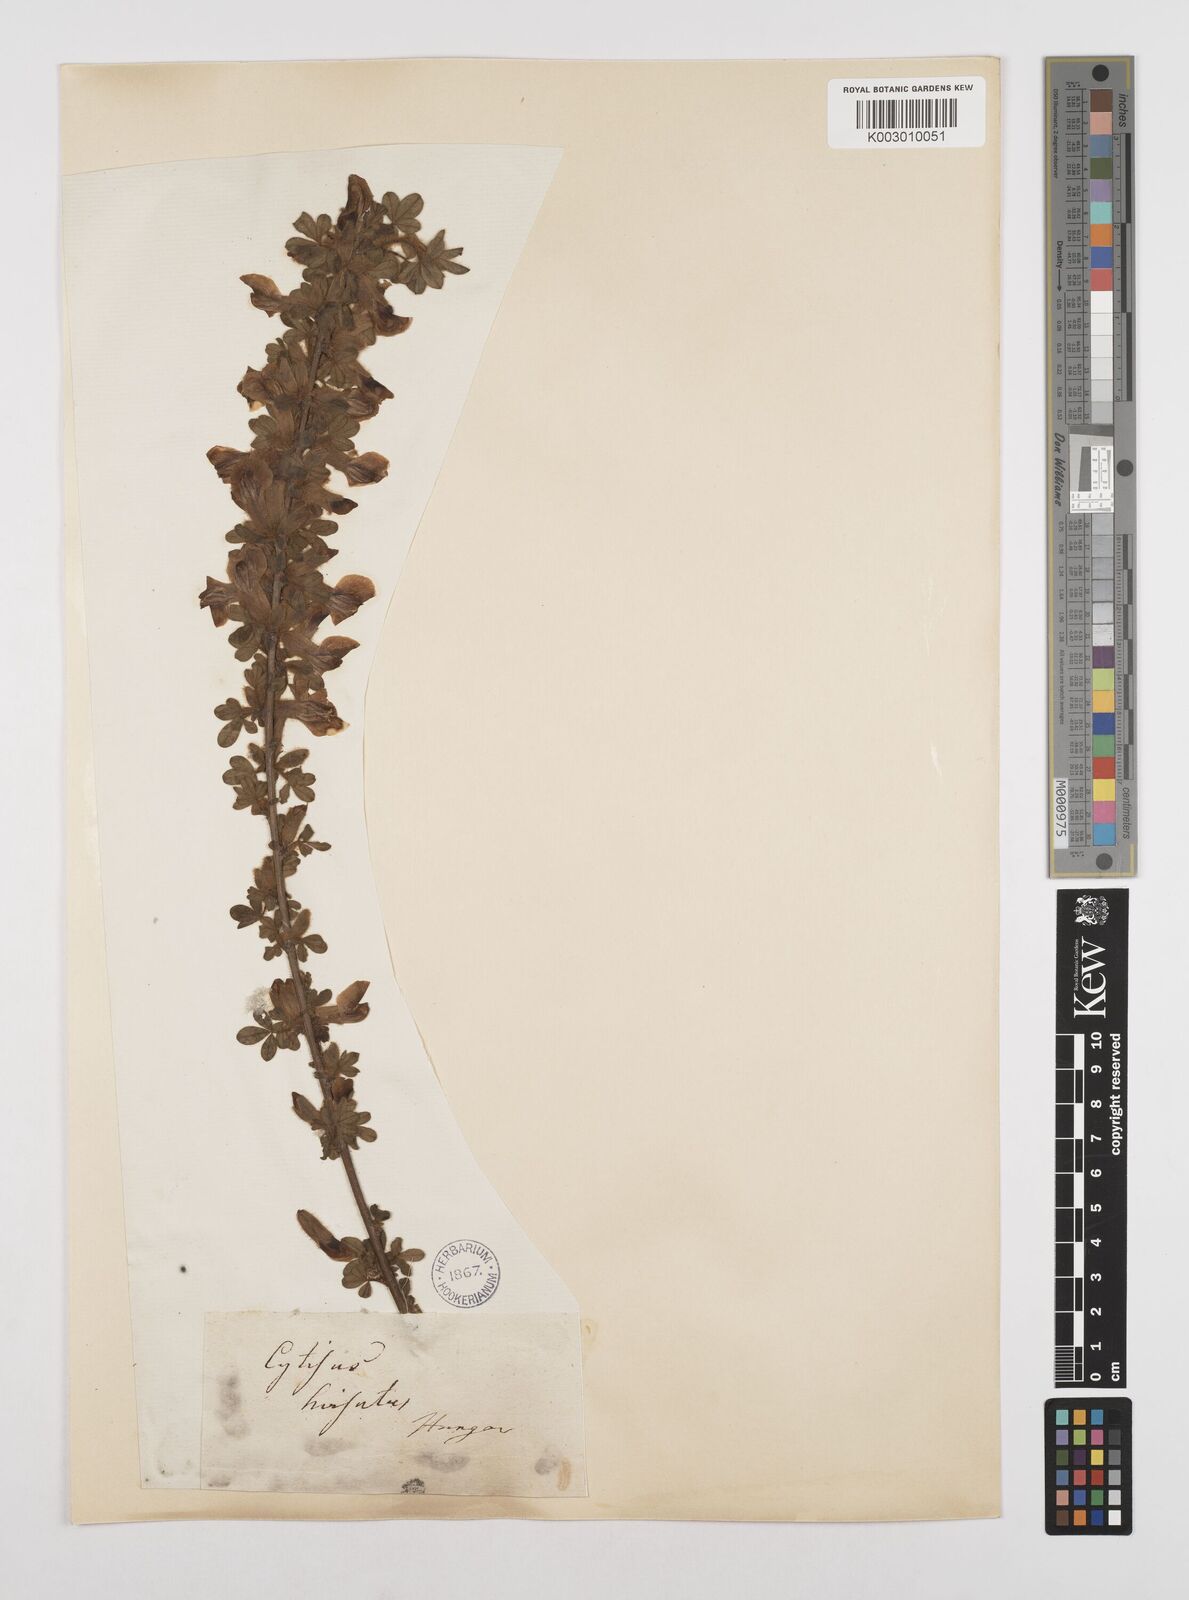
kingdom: Plantae
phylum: Tracheophyta
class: Magnoliopsida
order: Fabales
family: Fabaceae
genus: Chamaecytisus
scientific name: Chamaecytisus hirsutus
